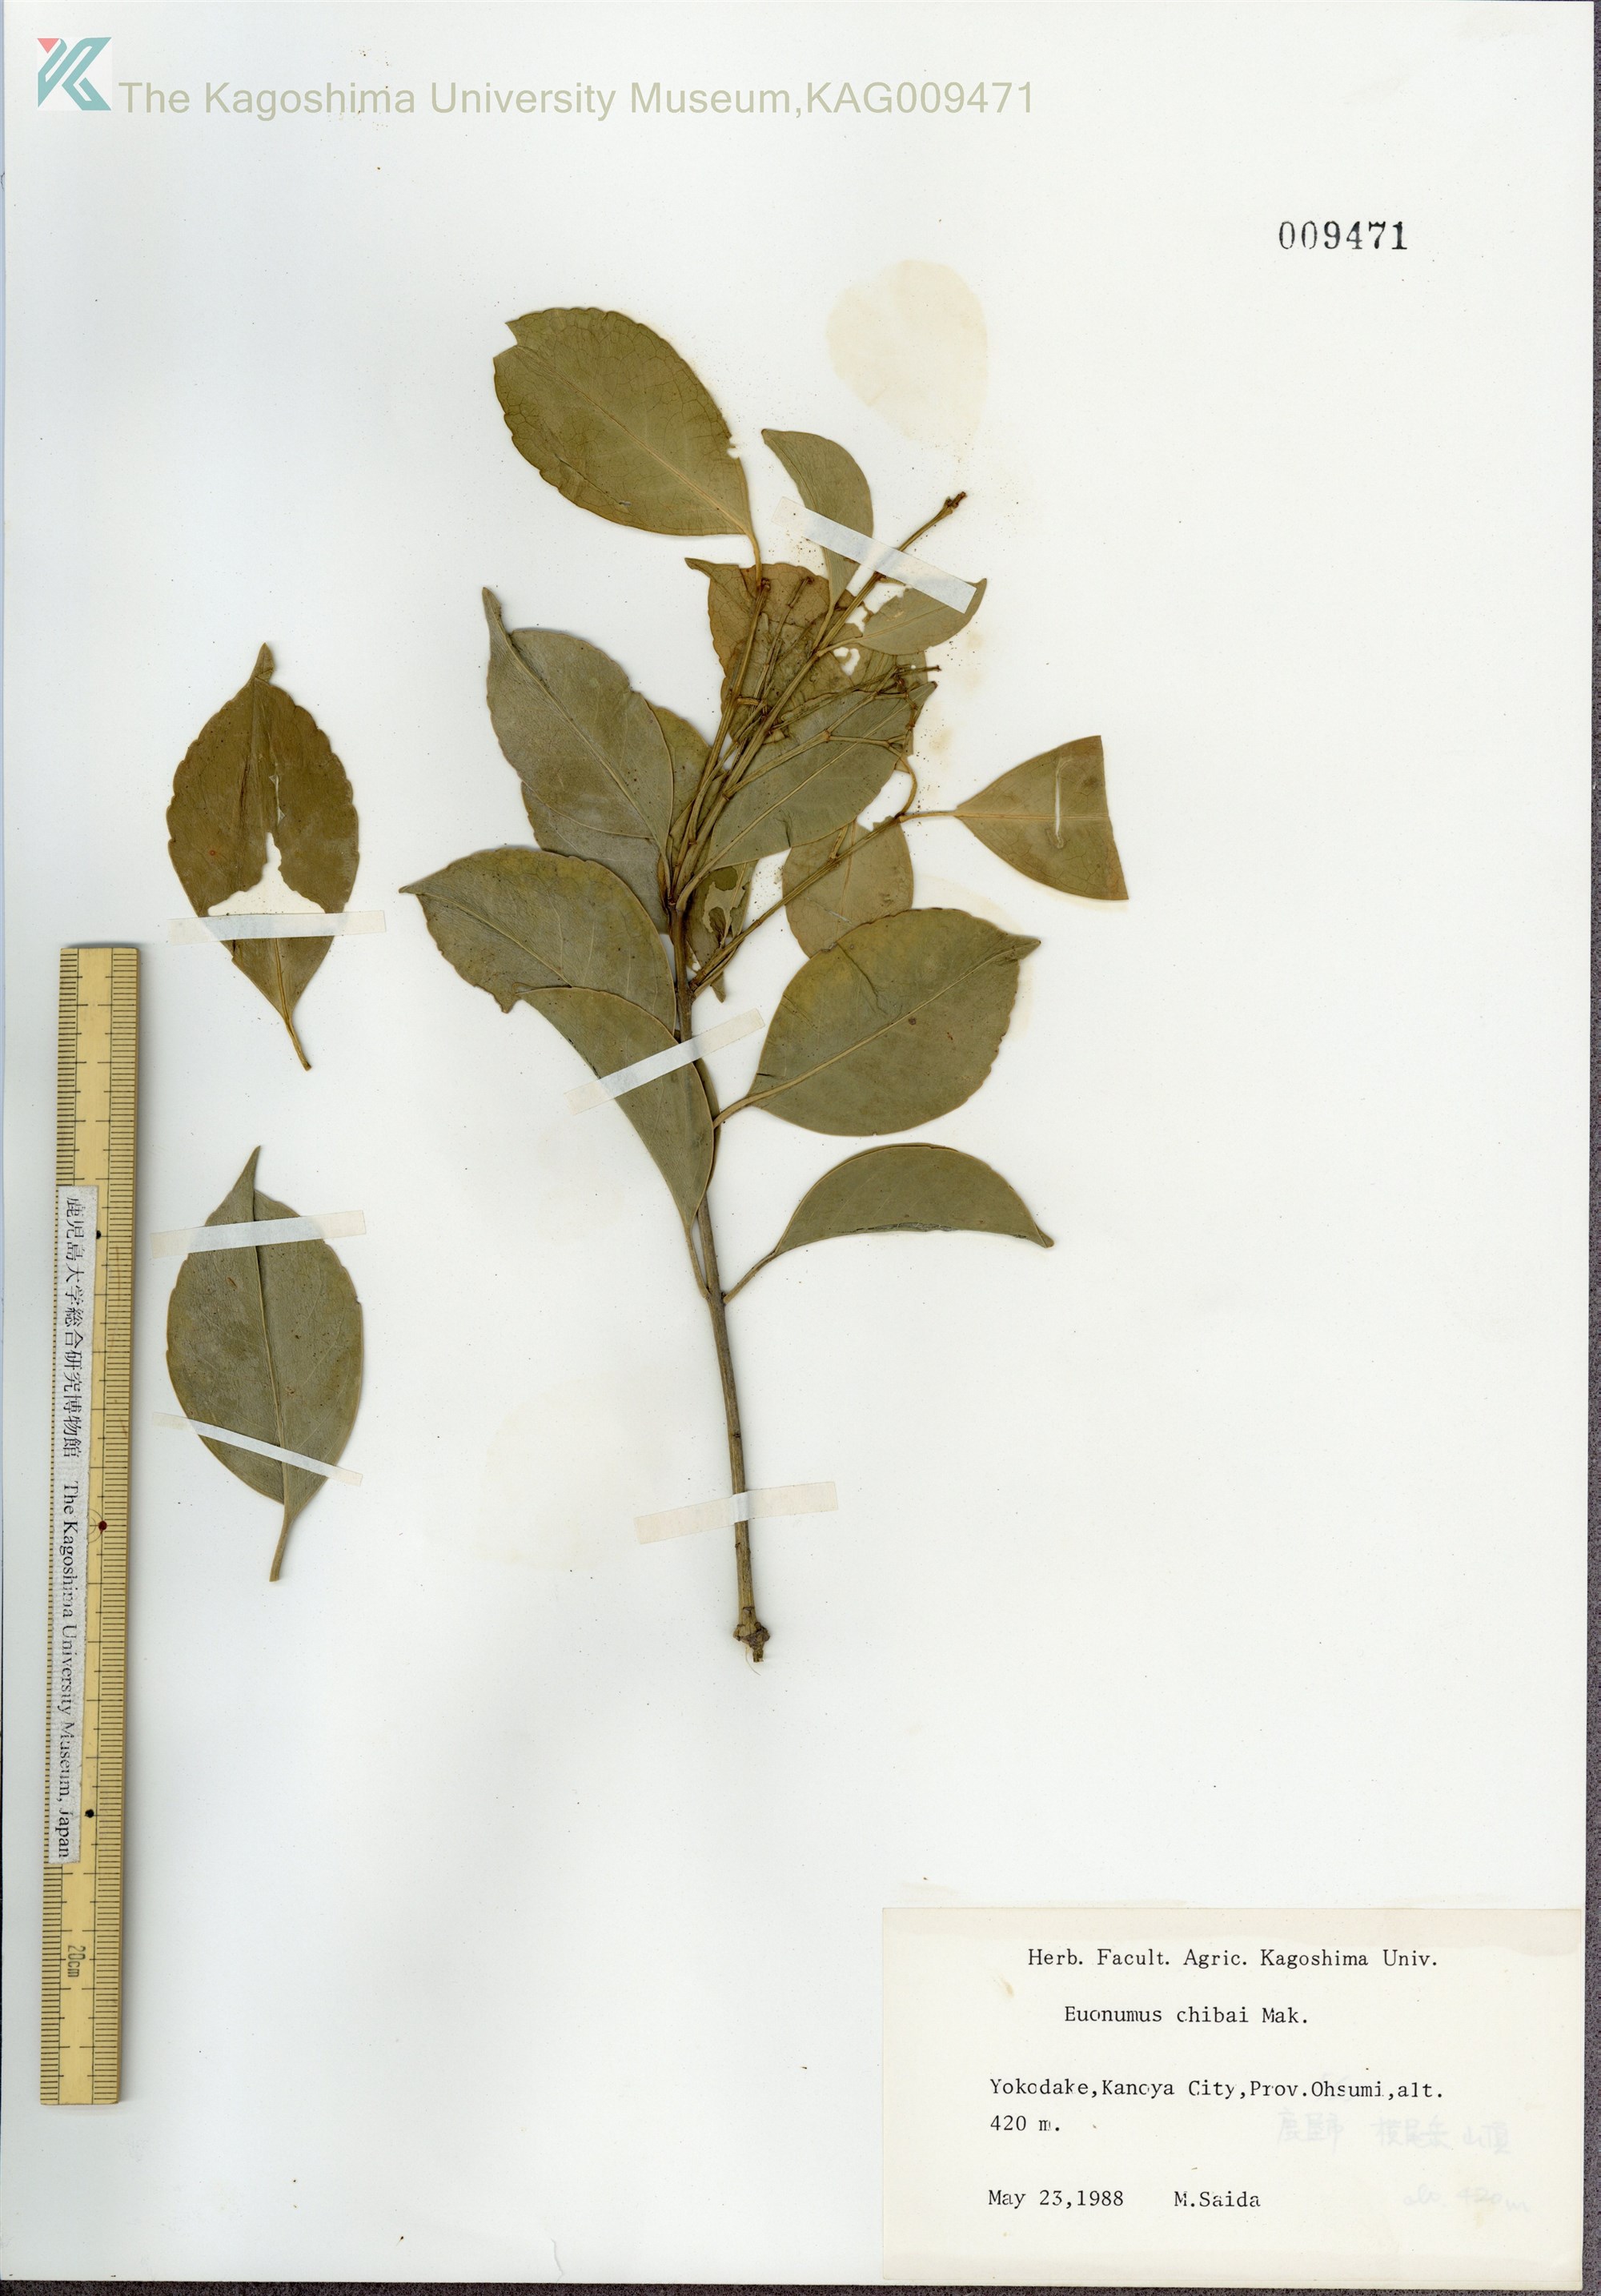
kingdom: Plantae
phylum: Tracheophyta
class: Magnoliopsida
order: Celastrales
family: Celastraceae
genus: Euonymus
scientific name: Euonymus chibae
